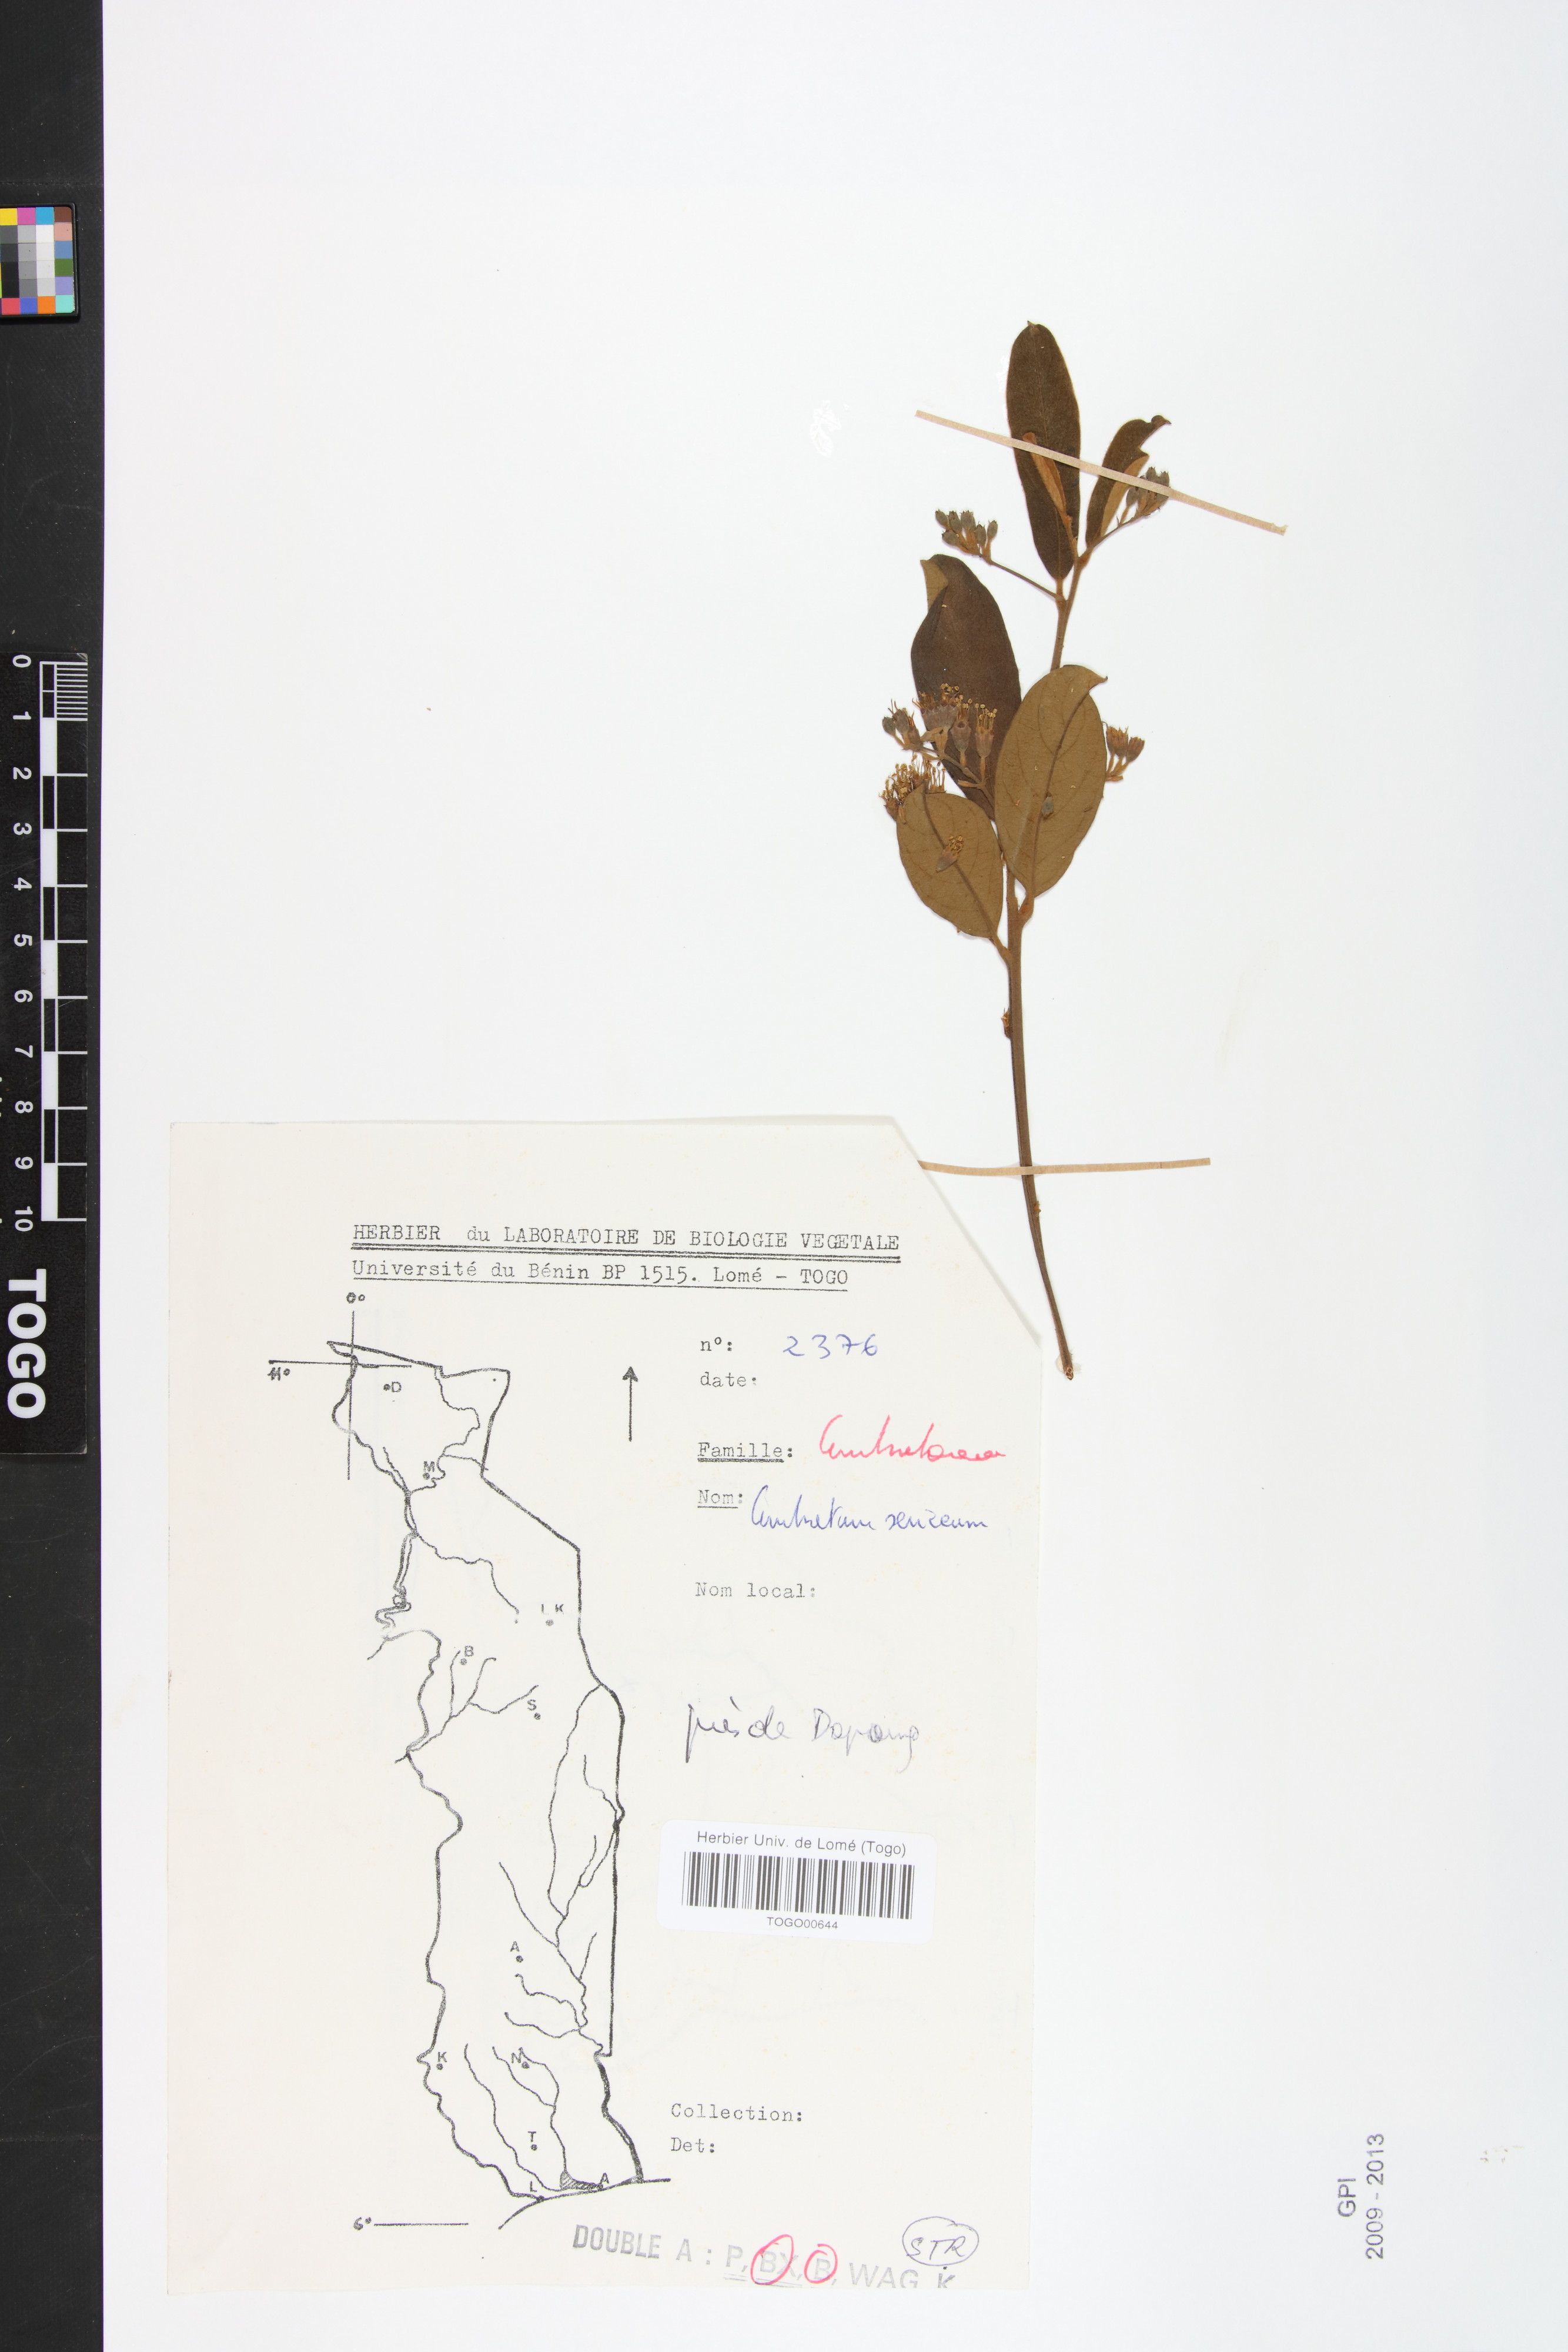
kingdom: Plantae
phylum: Tracheophyta
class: Magnoliopsida
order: Myrtales
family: Combretaceae
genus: Combretum
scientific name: Combretum sericeum
